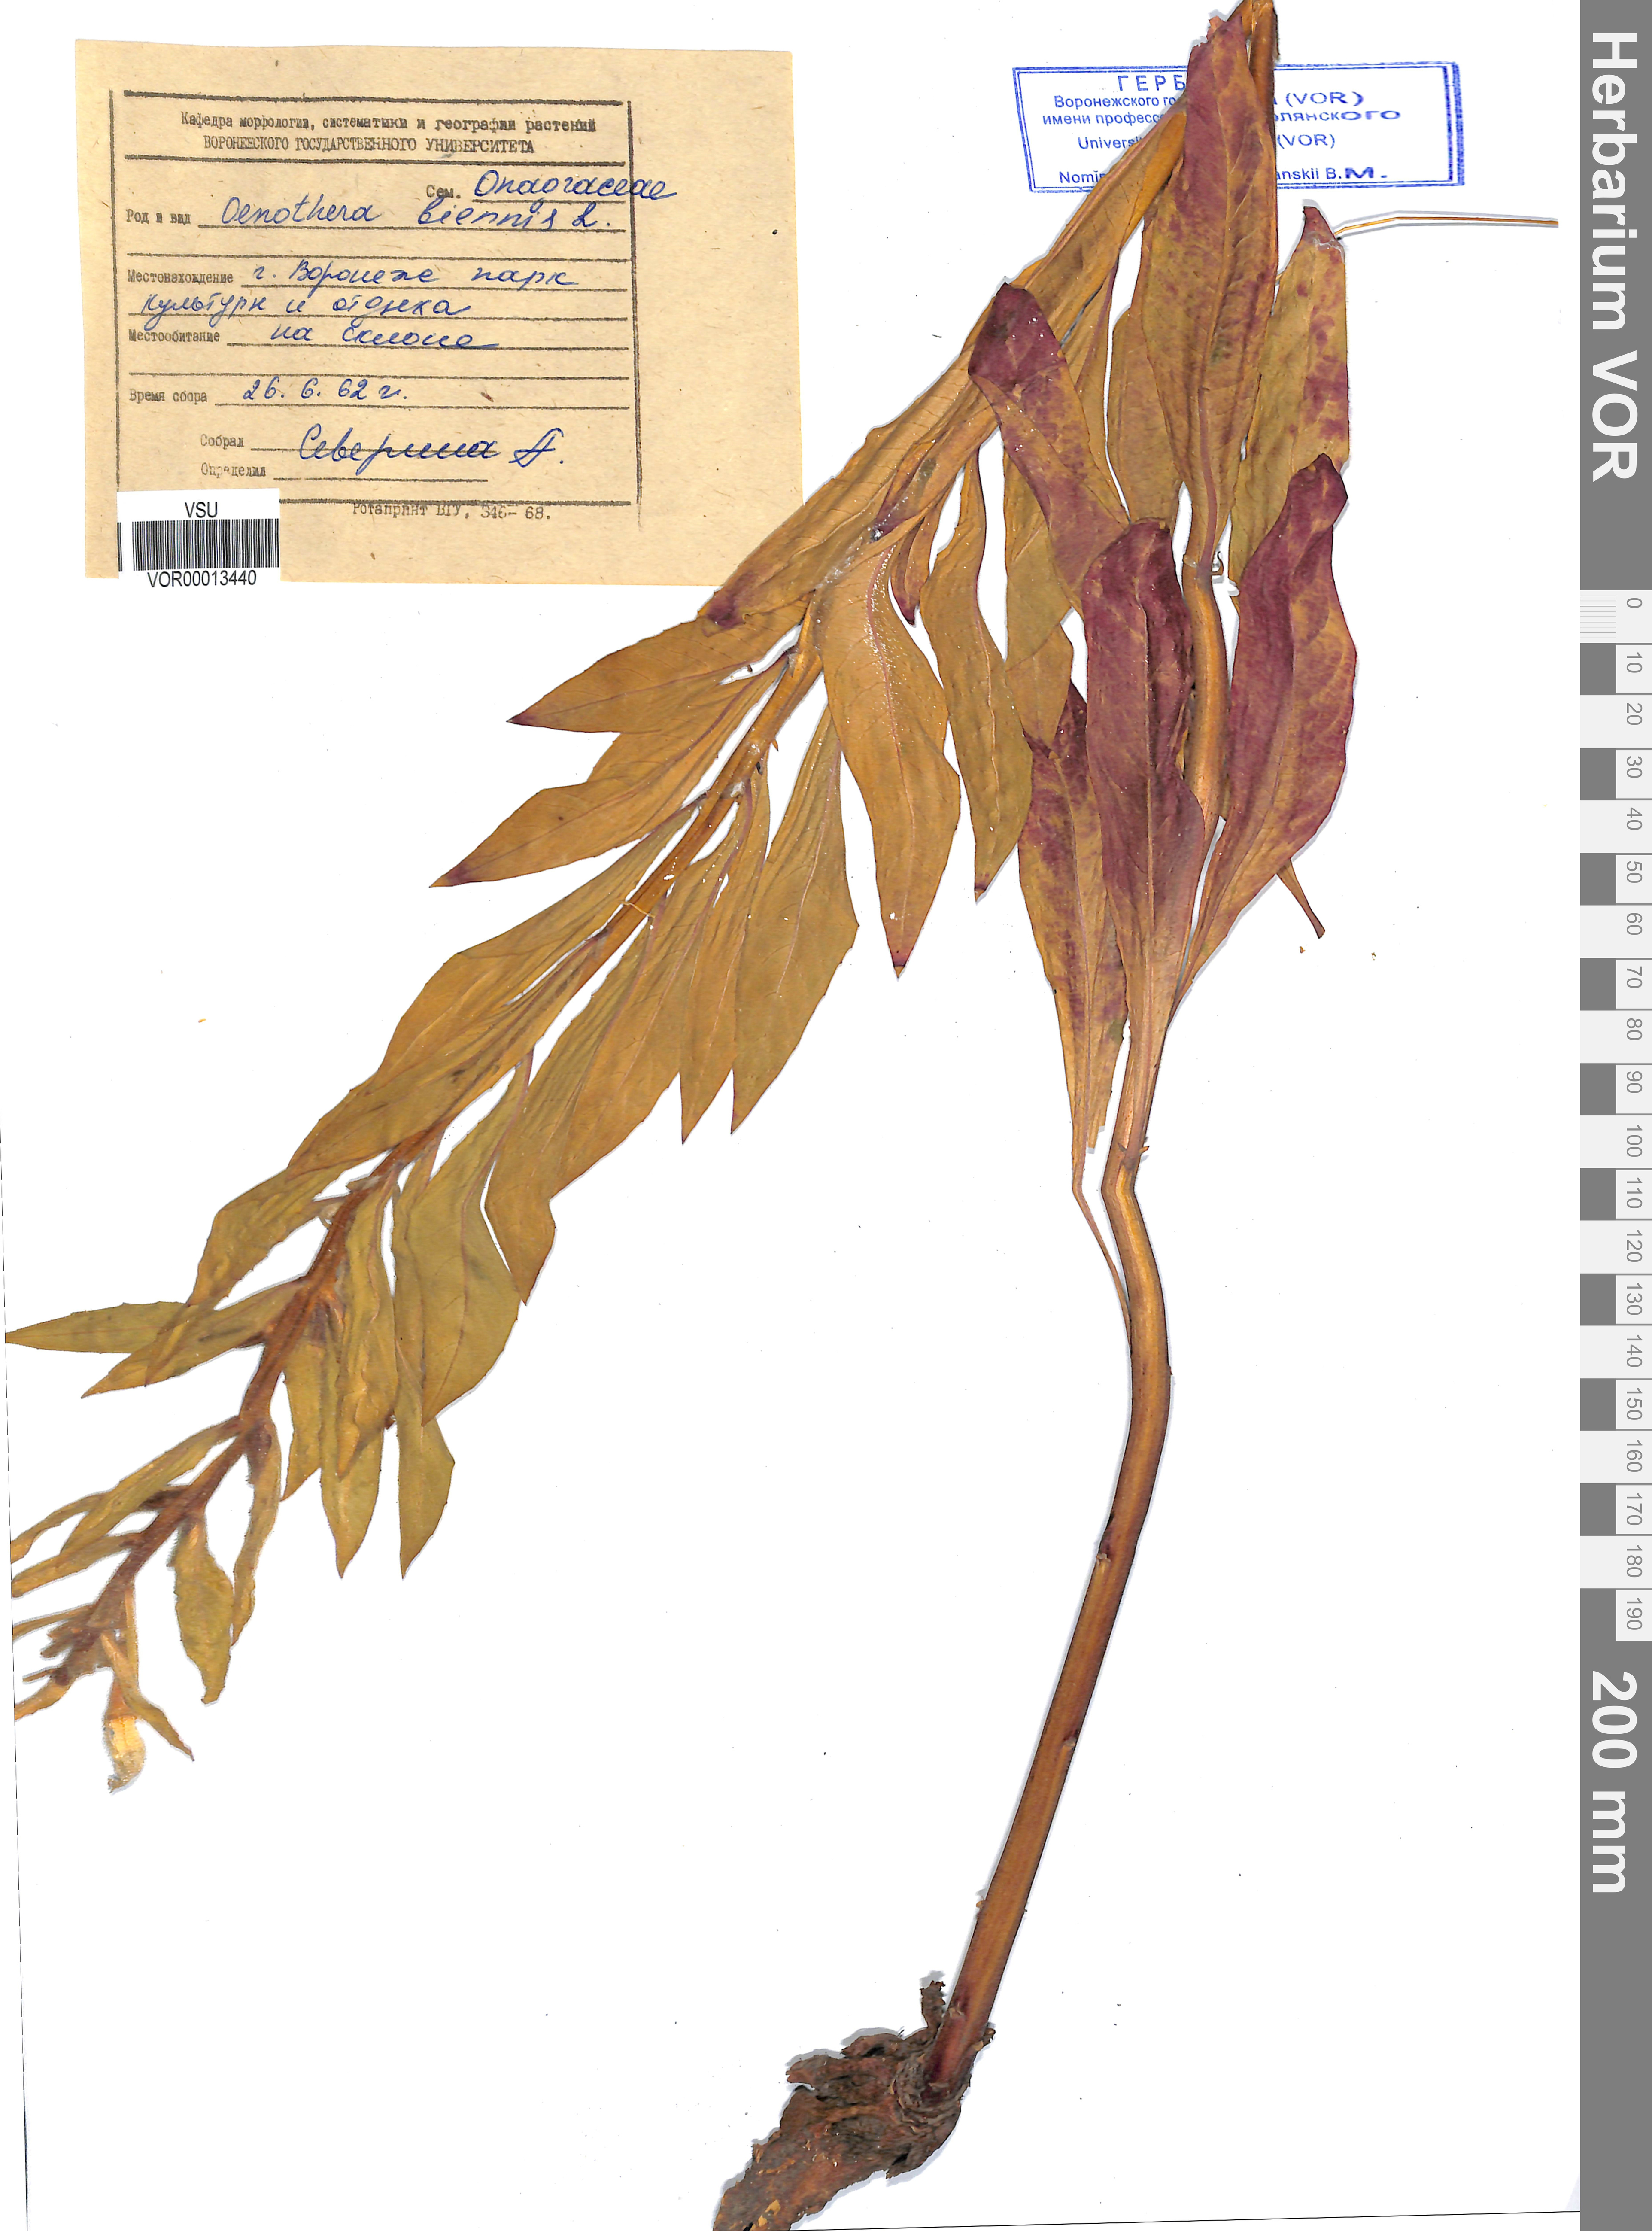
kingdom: Plantae
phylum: Tracheophyta
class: Magnoliopsida
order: Myrtales
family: Onagraceae
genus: Oenothera
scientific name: Oenothera biennis
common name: Common evening-primrose
